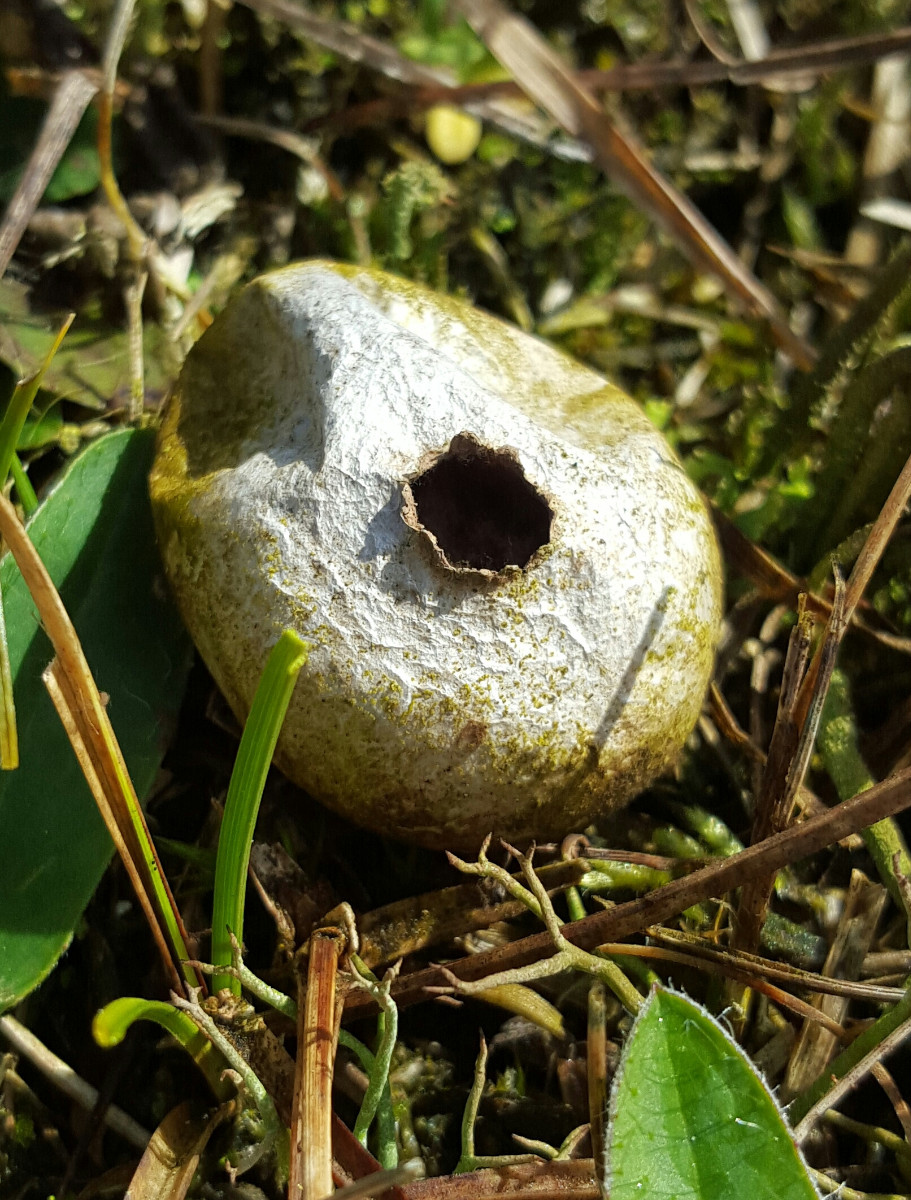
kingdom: Fungi
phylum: Basidiomycota
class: Agaricomycetes
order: Agaricales
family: Agaricaceae
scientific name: Agaricaceae
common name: champignonfamilien
